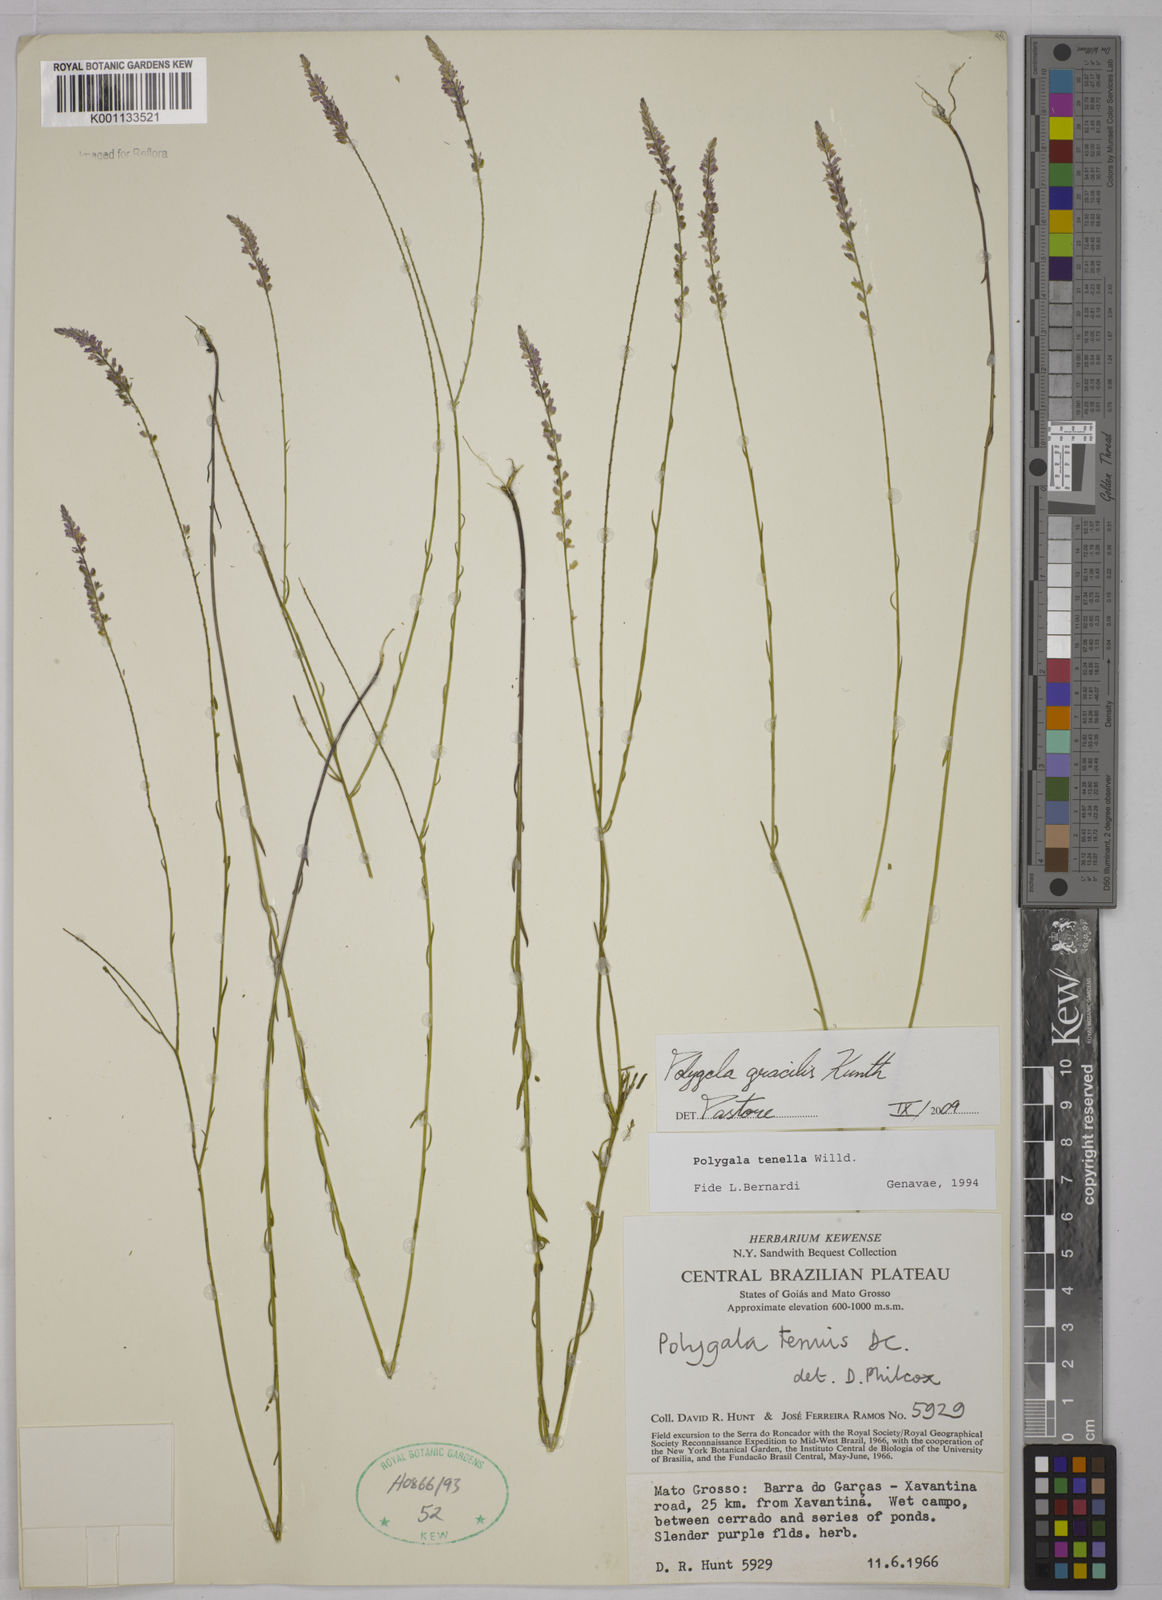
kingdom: Plantae
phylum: Tracheophyta
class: Magnoliopsida
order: Fabales
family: Polygalaceae
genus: Polygala
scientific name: Polygala gracilis
